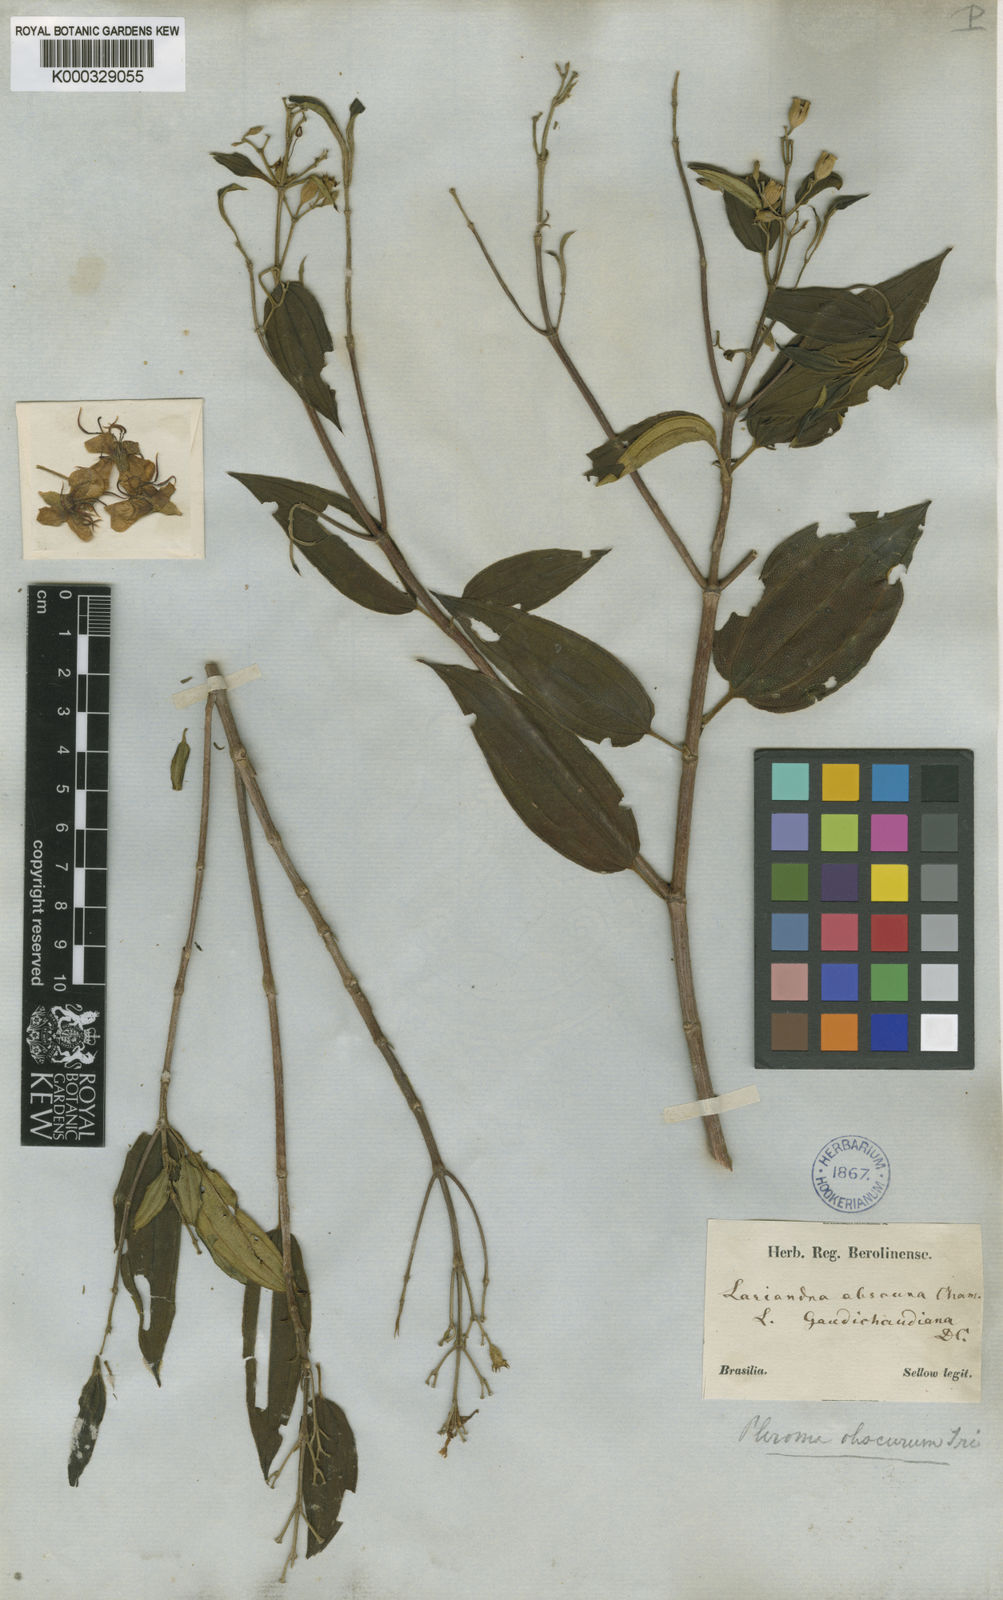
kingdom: Plantae
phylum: Tracheophyta
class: Magnoliopsida
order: Myrtales
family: Melastomataceae
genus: Pleroma
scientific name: Pleroma vimineum
